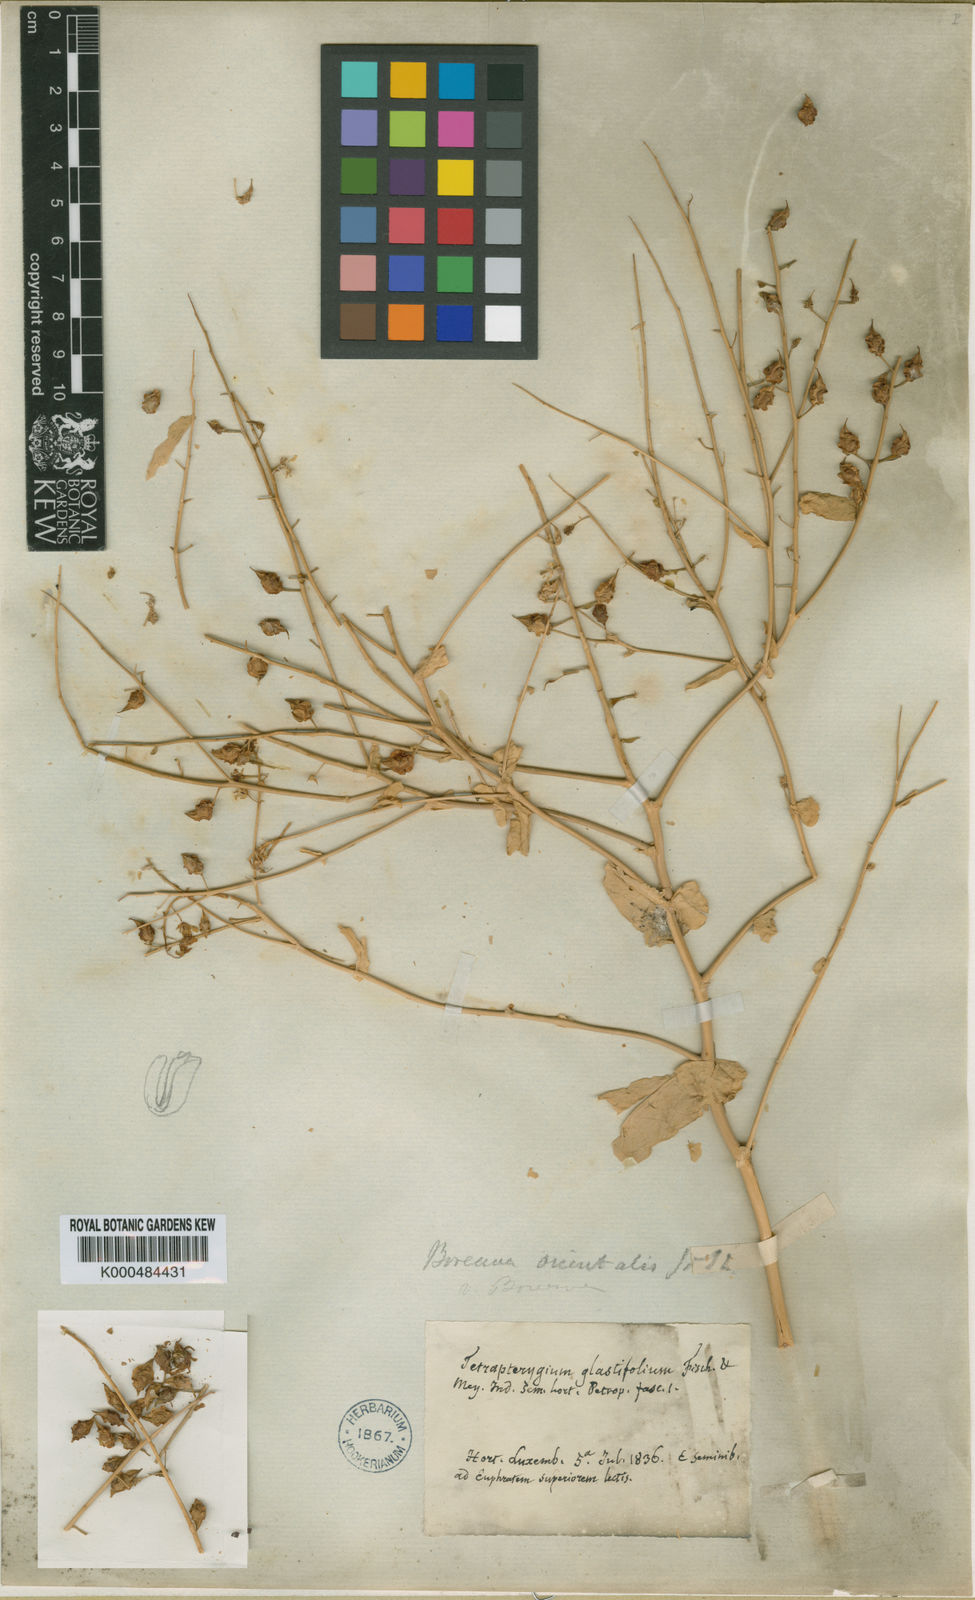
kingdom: Plantae
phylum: Tracheophyta
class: Magnoliopsida
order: Brassicales
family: Brassicaceae
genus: Isatis
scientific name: Isatis quadrialata
